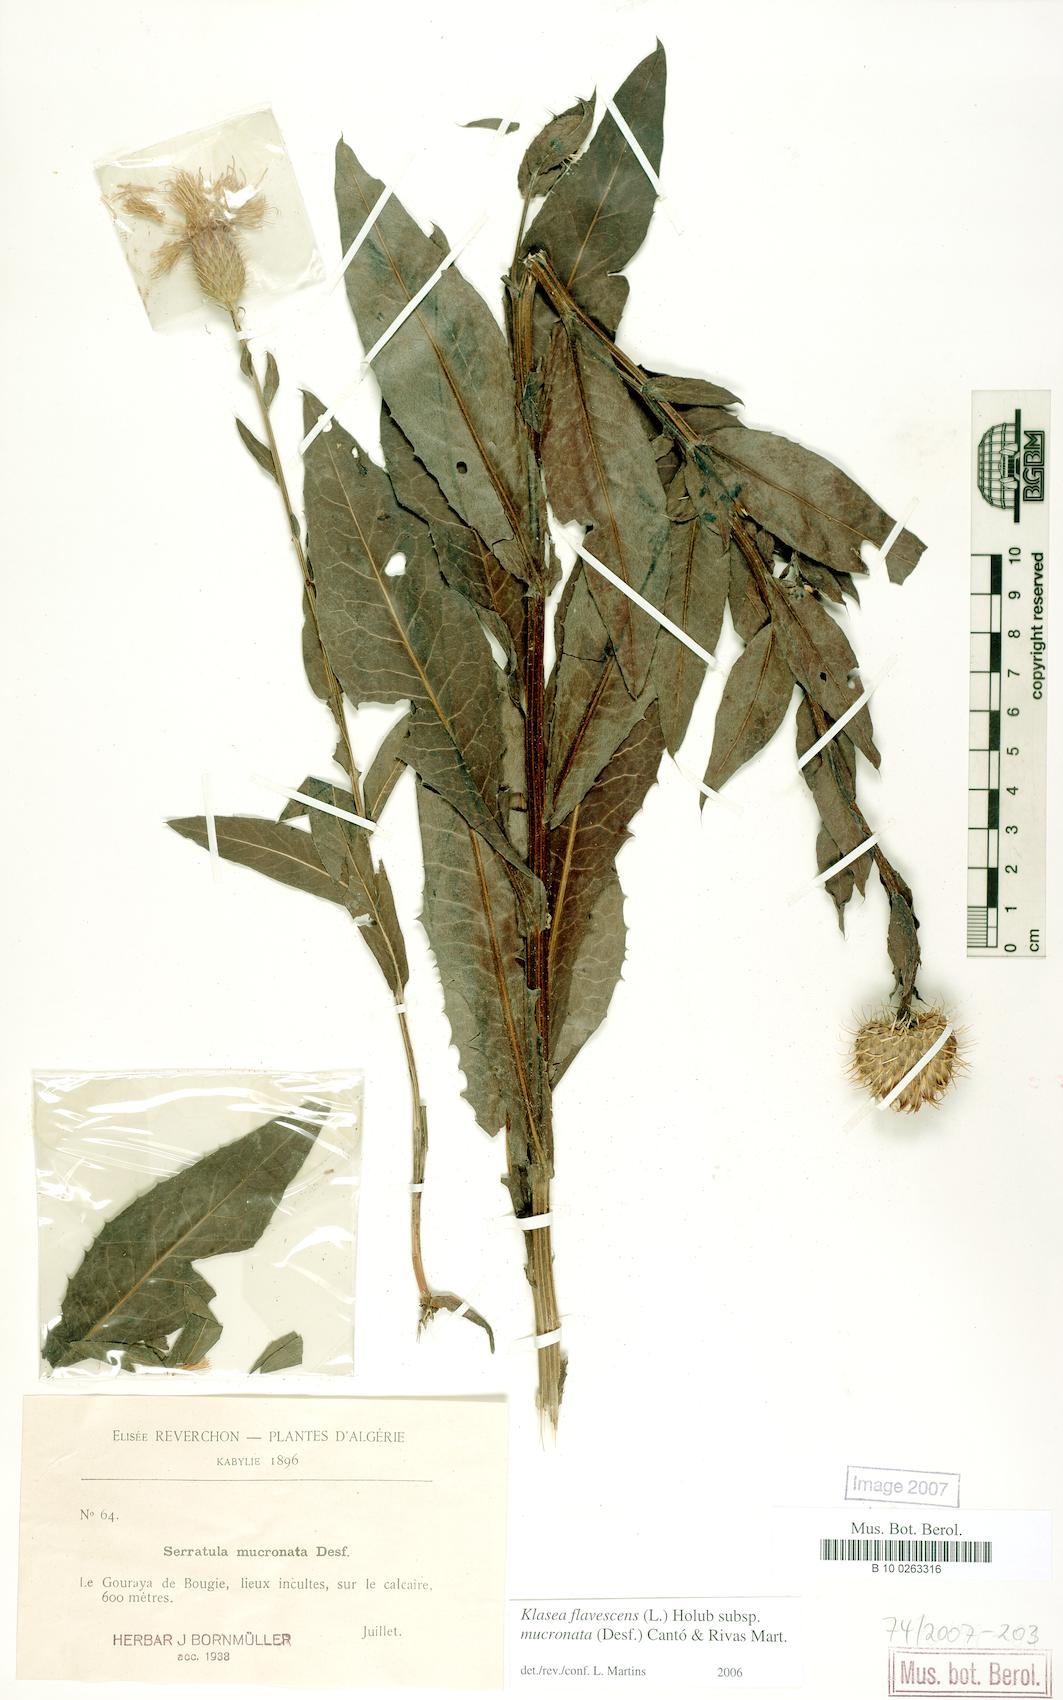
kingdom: Plantae
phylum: Tracheophyta
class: Magnoliopsida
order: Asterales
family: Asteraceae
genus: Klasea
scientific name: Klasea flavescens
